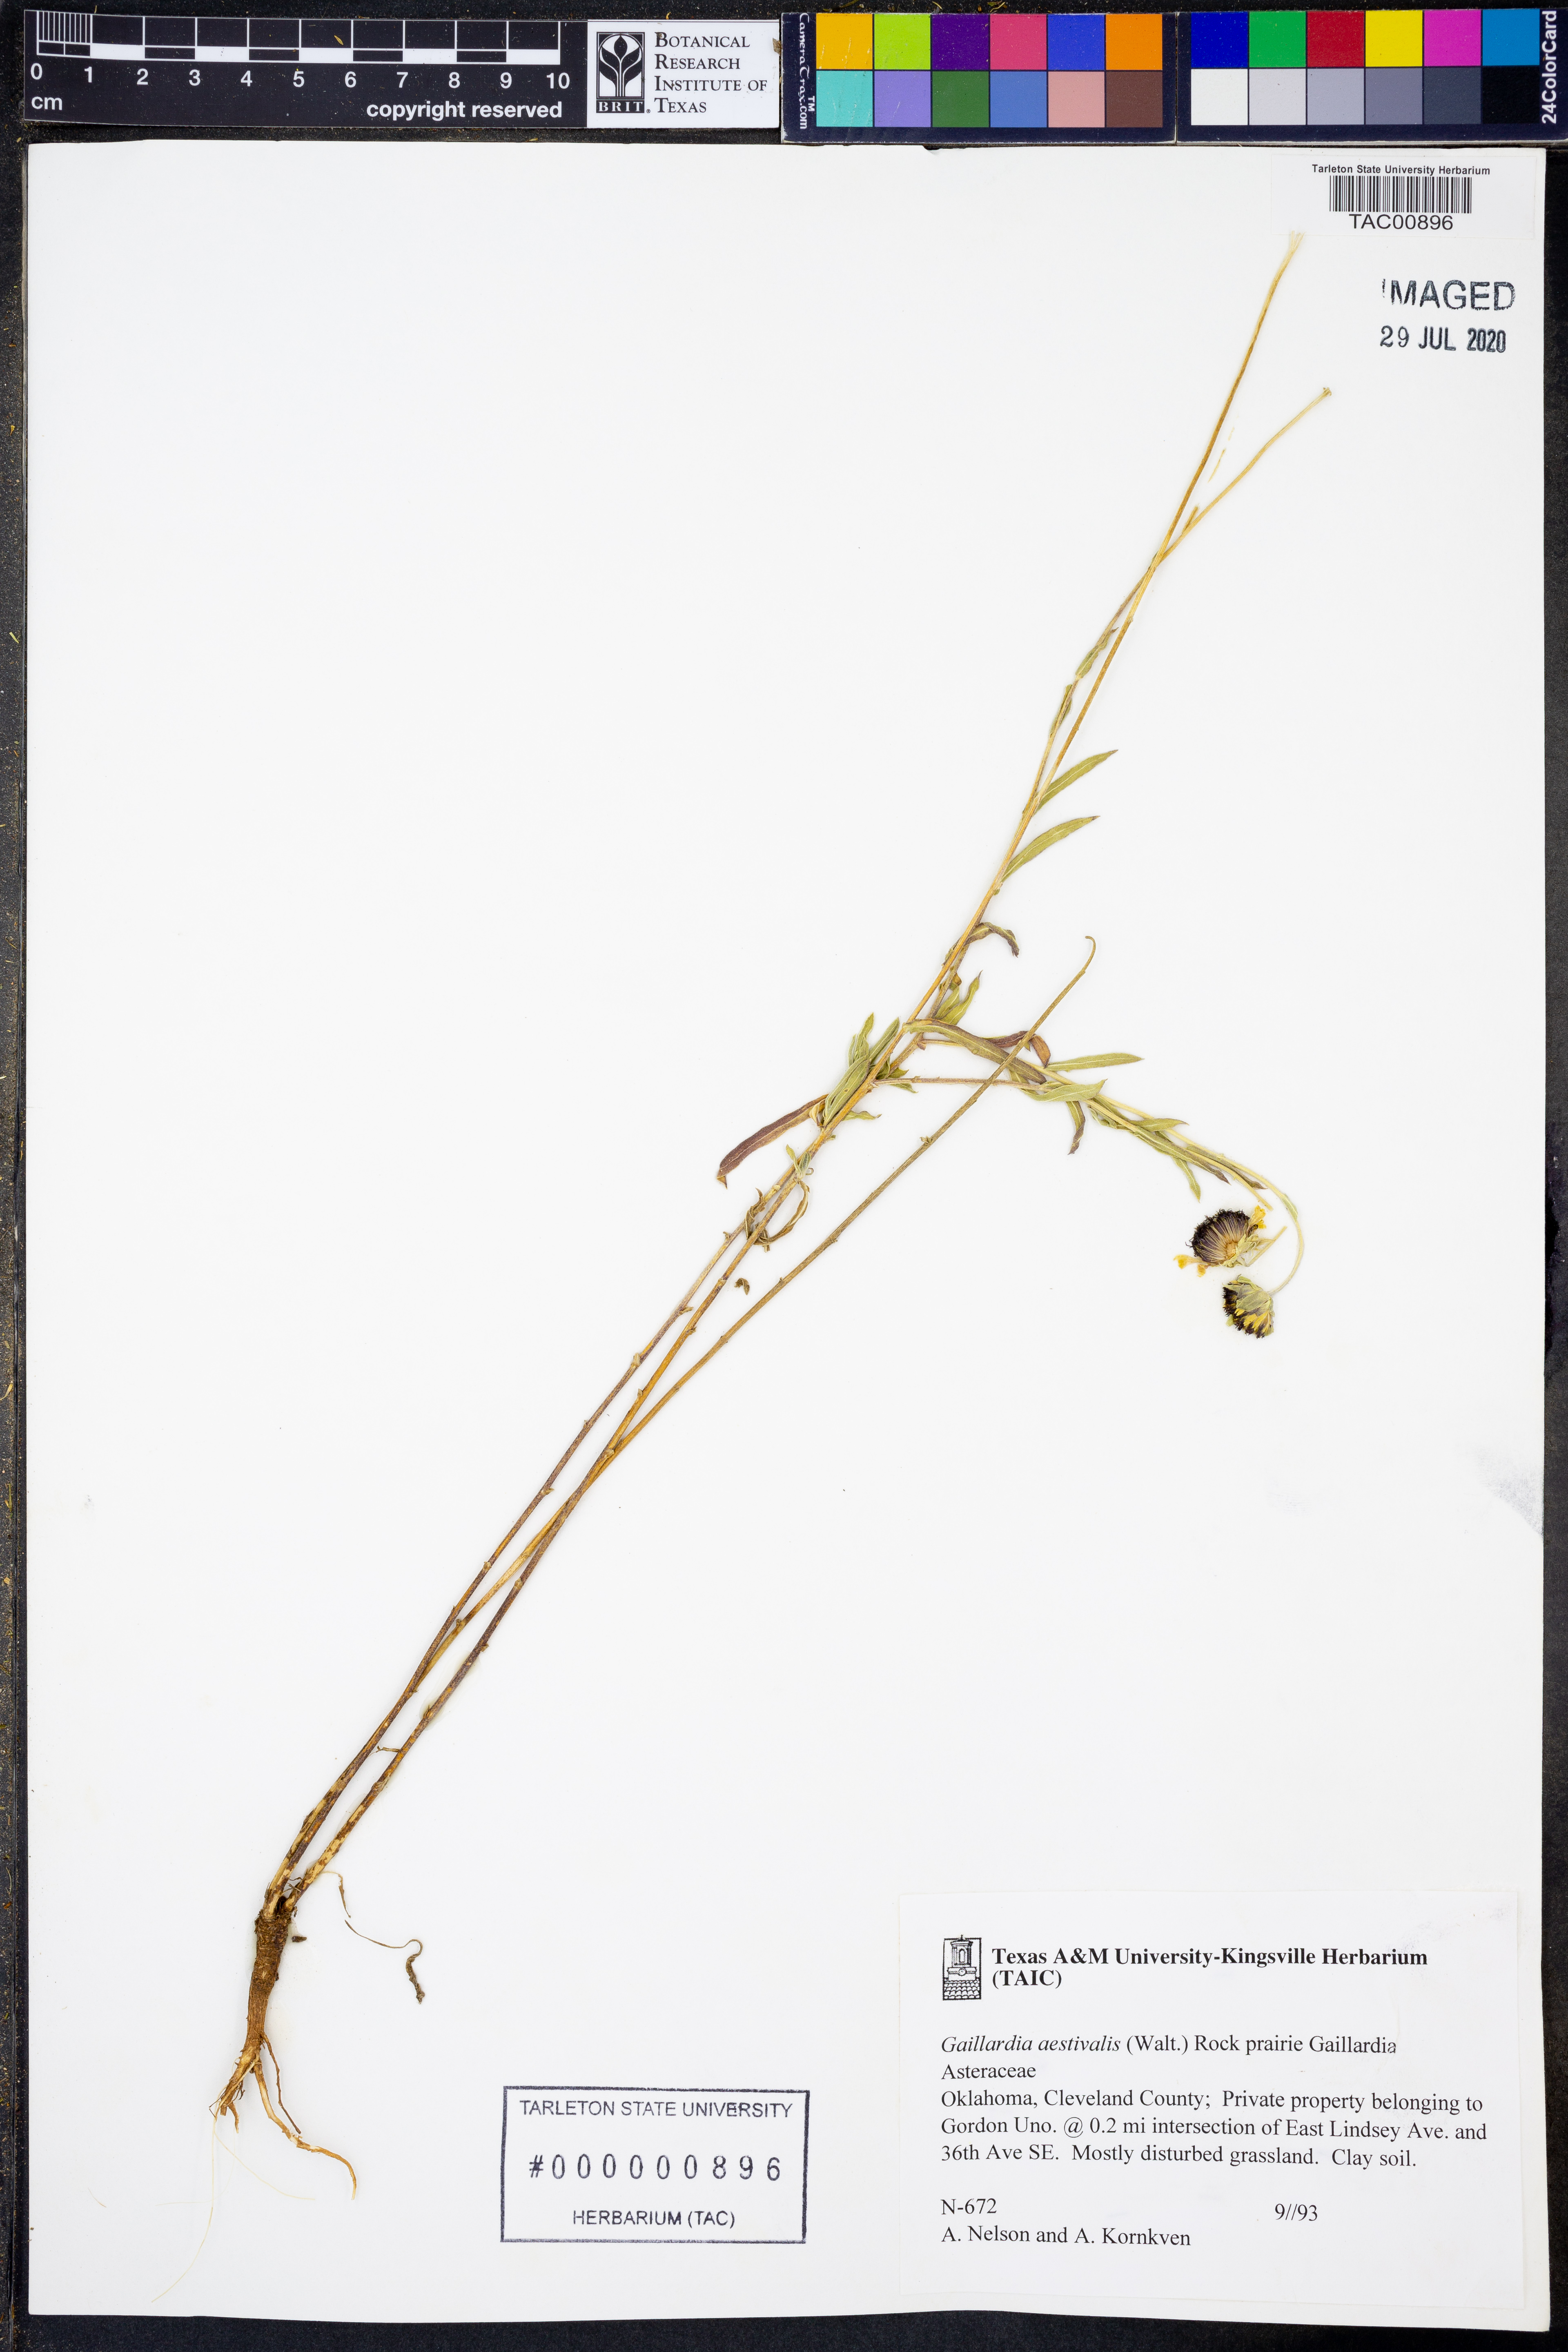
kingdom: Plantae
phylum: Tracheophyta
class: Magnoliopsida
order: Asterales
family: Asteraceae
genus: Gaillardia
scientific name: Gaillardia aestivalis
